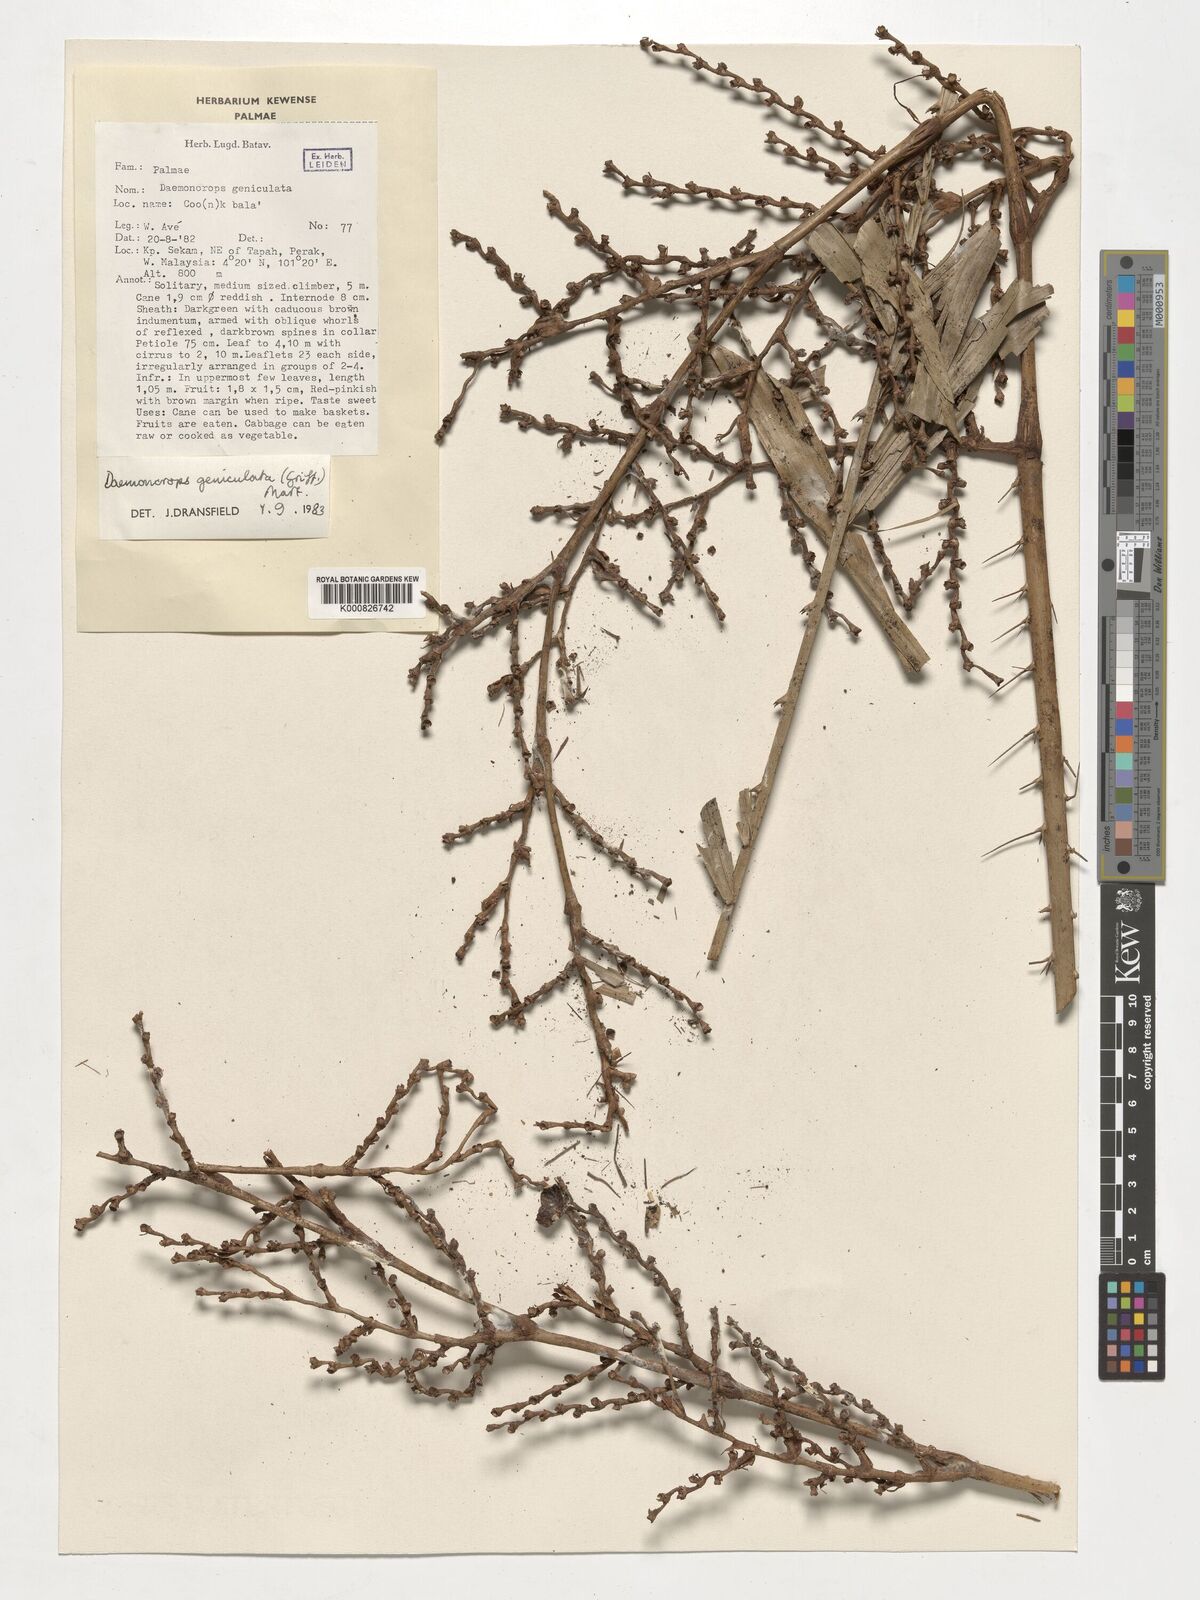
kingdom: Plantae
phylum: Tracheophyta
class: Liliopsida
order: Arecales
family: Arecaceae
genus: Calamus
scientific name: Calamus geniculatus
